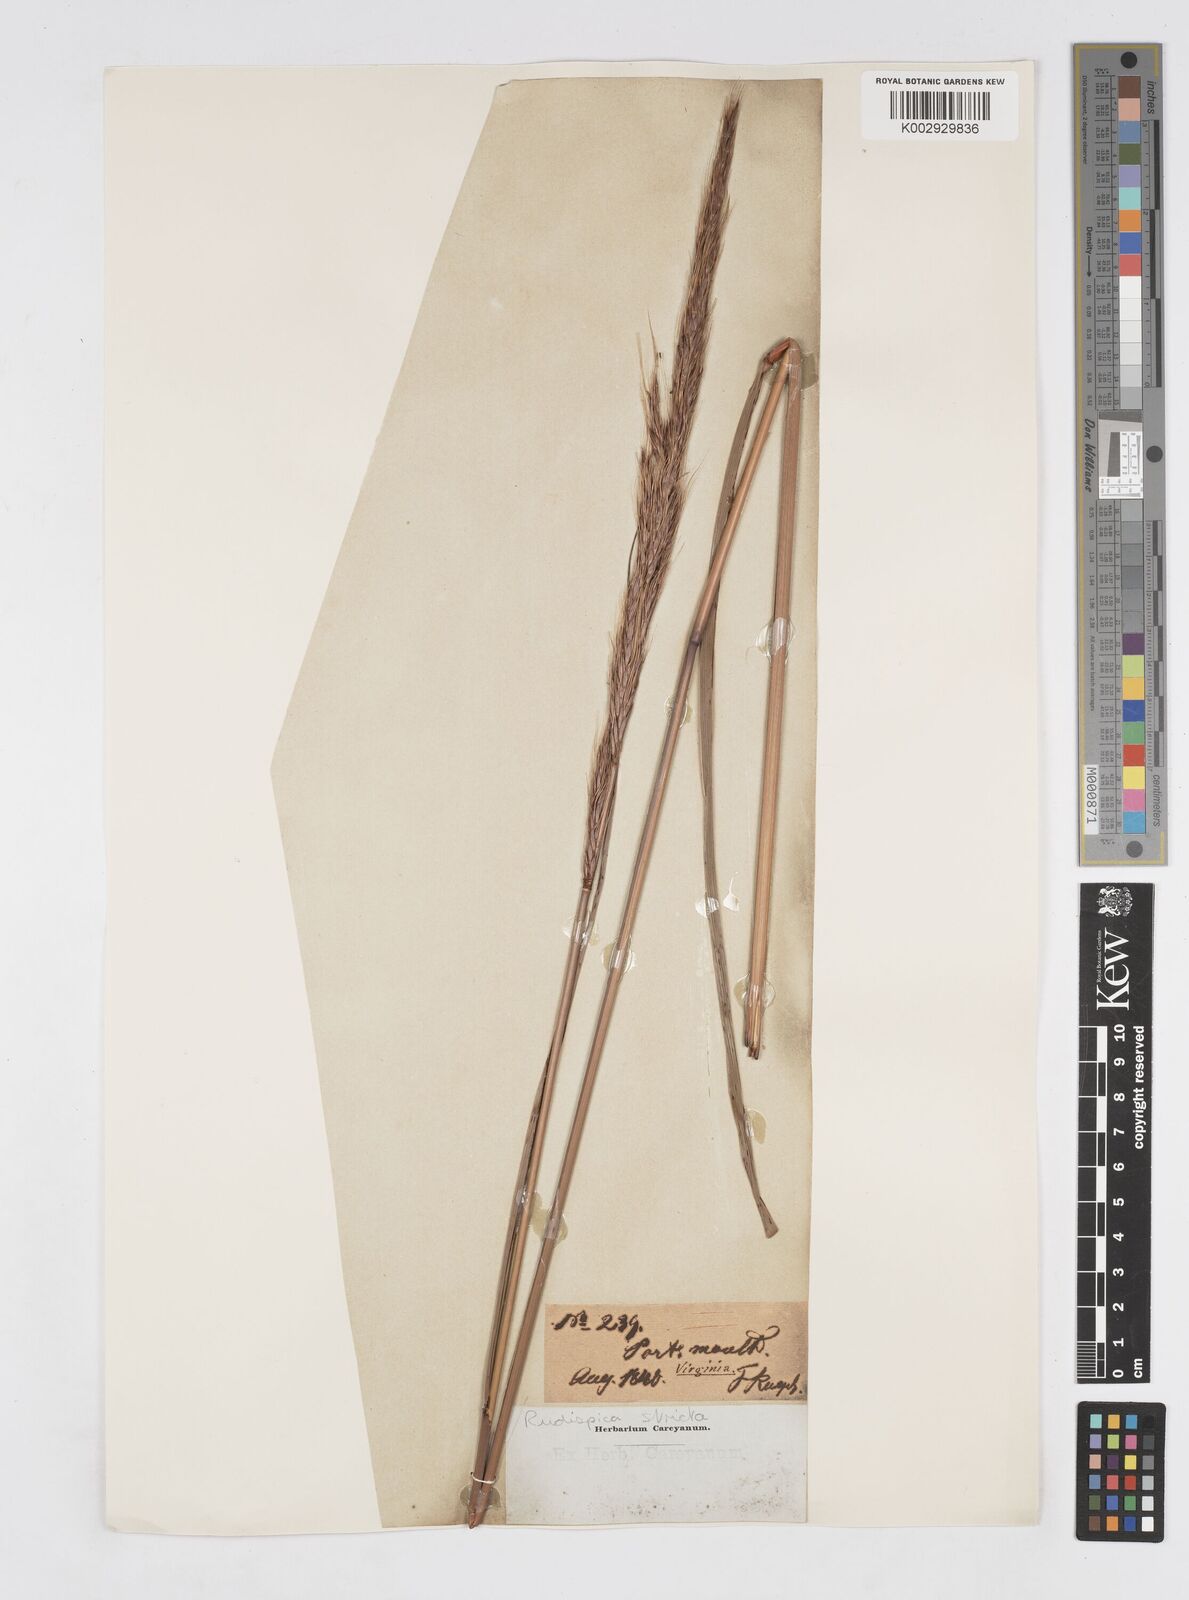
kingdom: Plantae
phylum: Tracheophyta
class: Liliopsida
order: Poales
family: Poaceae
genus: Erianthus
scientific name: Erianthus strictus
